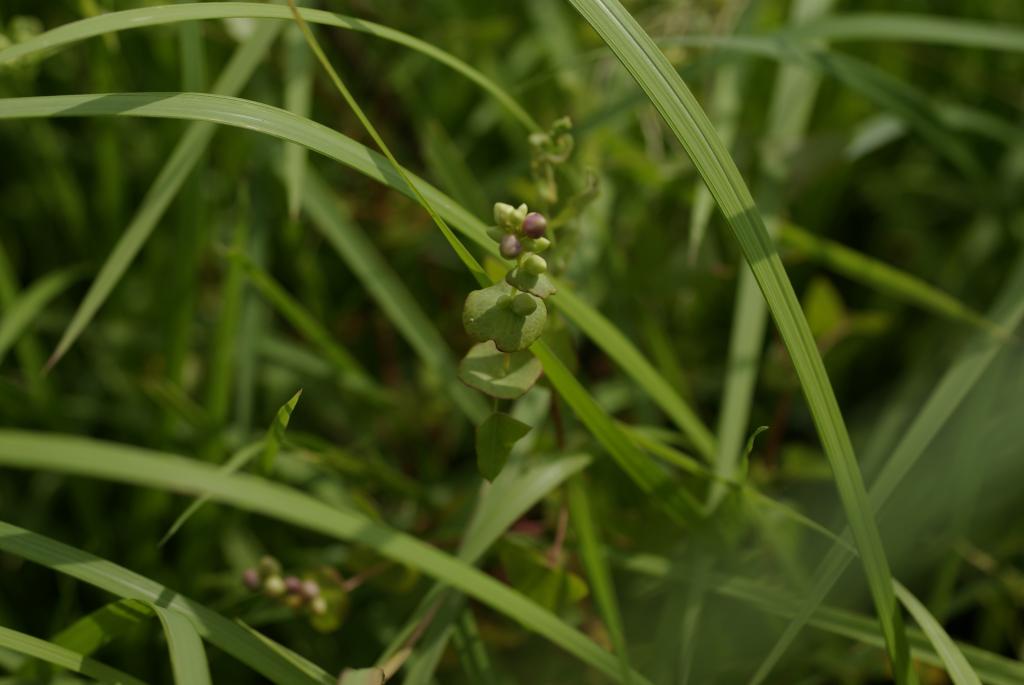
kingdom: Plantae
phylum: Tracheophyta
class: Magnoliopsida
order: Caryophyllales
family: Polygonaceae
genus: Persicaria
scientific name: Persicaria perfoliata
